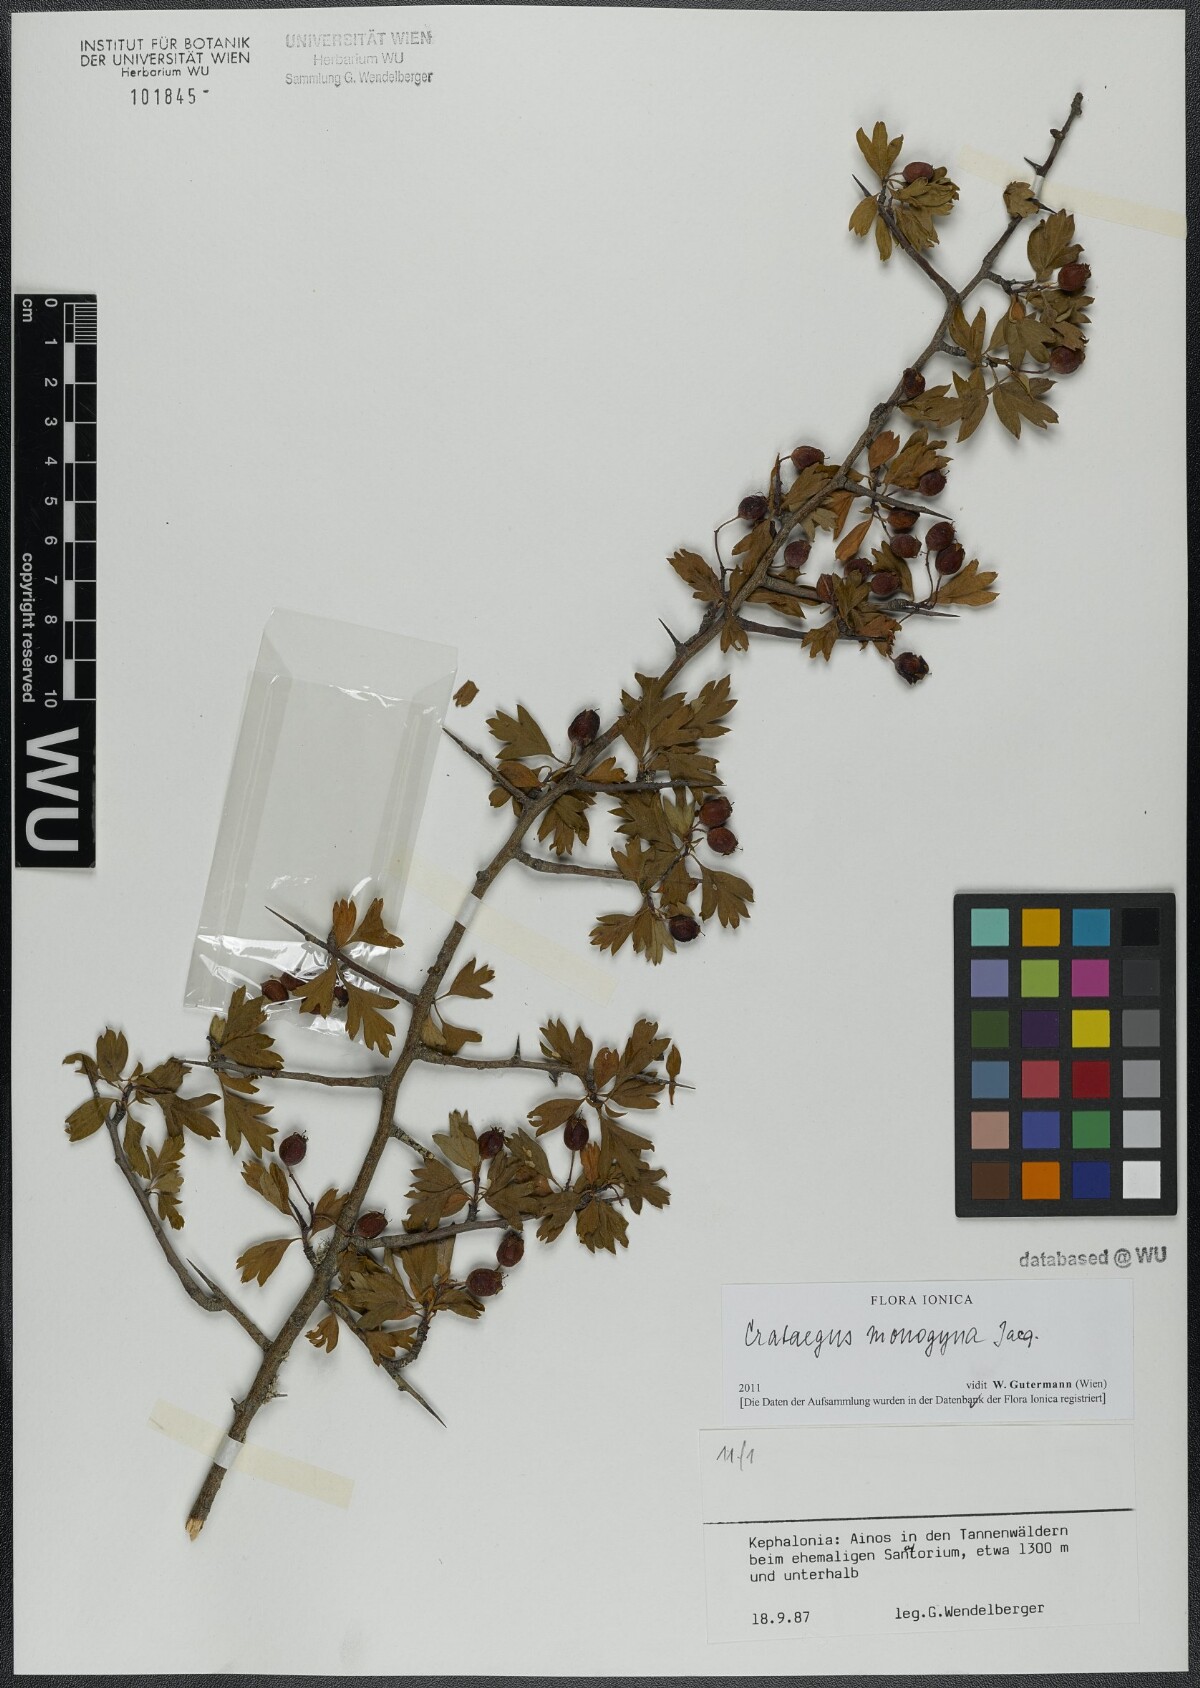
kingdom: Plantae
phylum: Tracheophyta
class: Magnoliopsida
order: Rosales
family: Rosaceae
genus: Crataegus
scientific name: Crataegus monogyna
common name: Hawthorn
